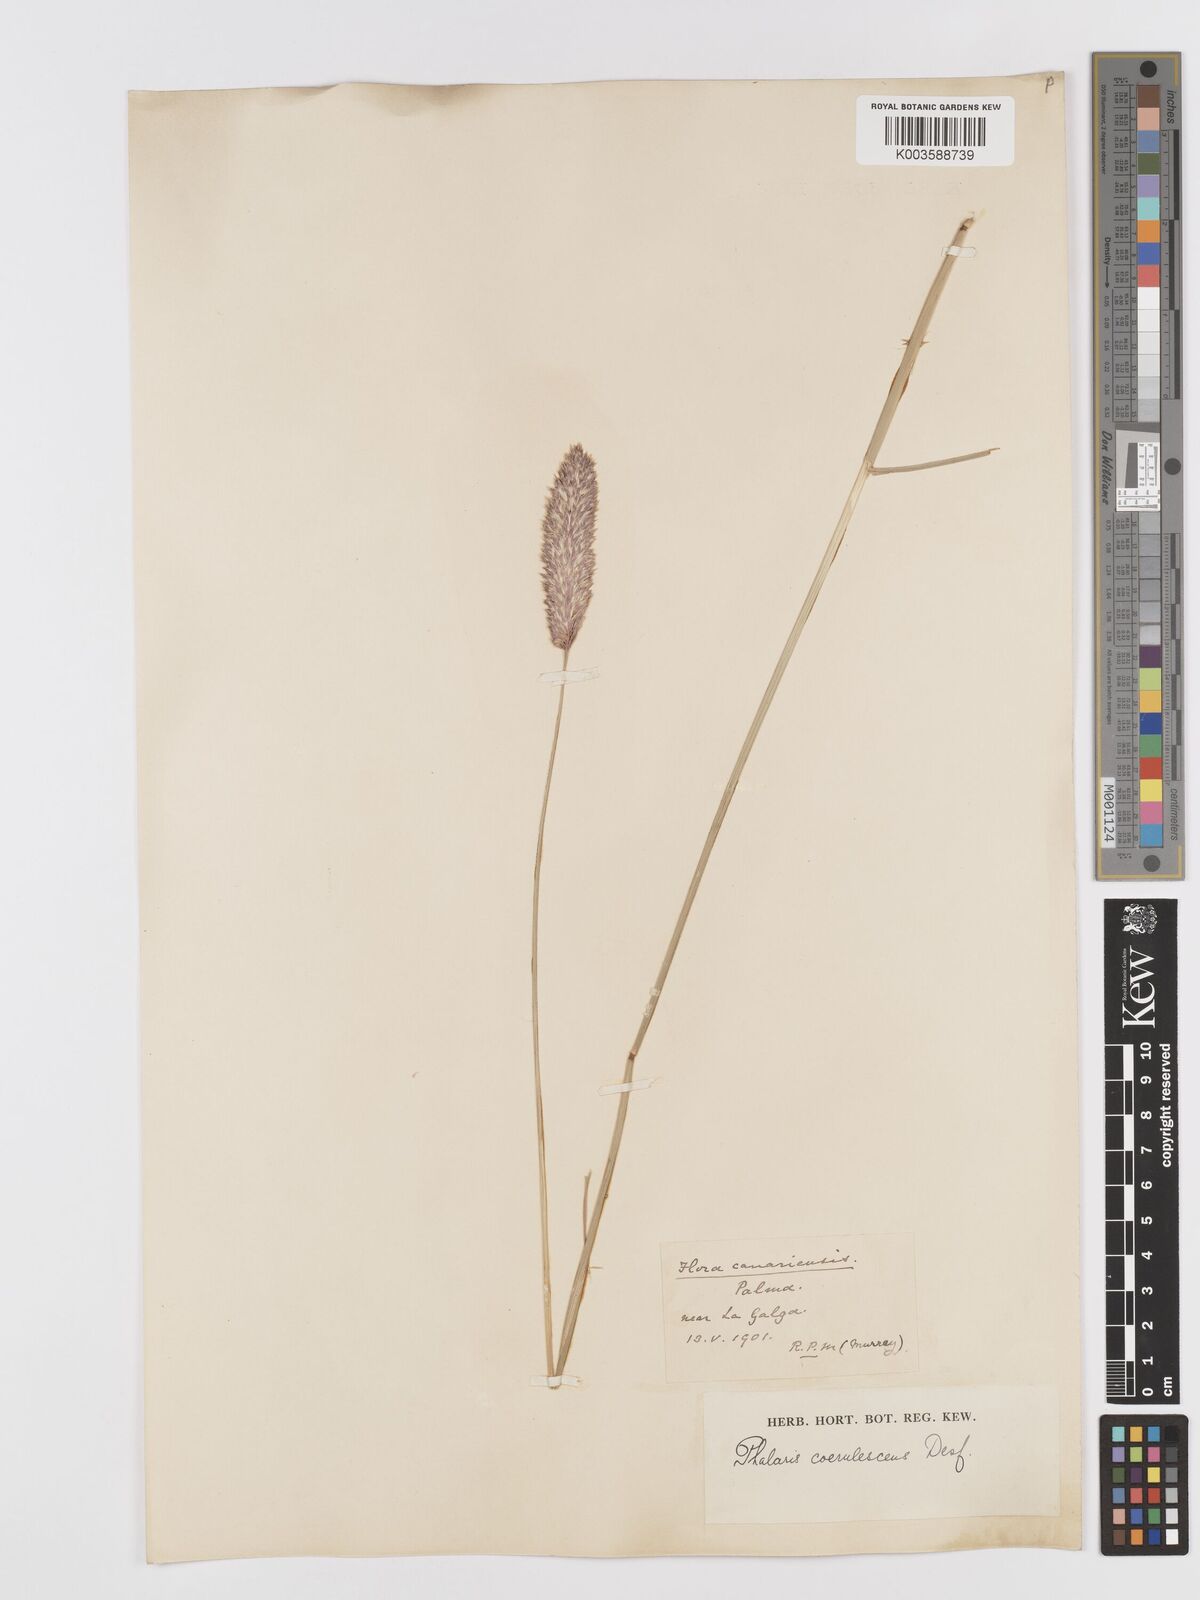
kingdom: Plantae
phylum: Tracheophyta
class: Liliopsida
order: Poales
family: Poaceae
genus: Phalaris
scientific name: Phalaris coerulescens
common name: Sunolgrass
